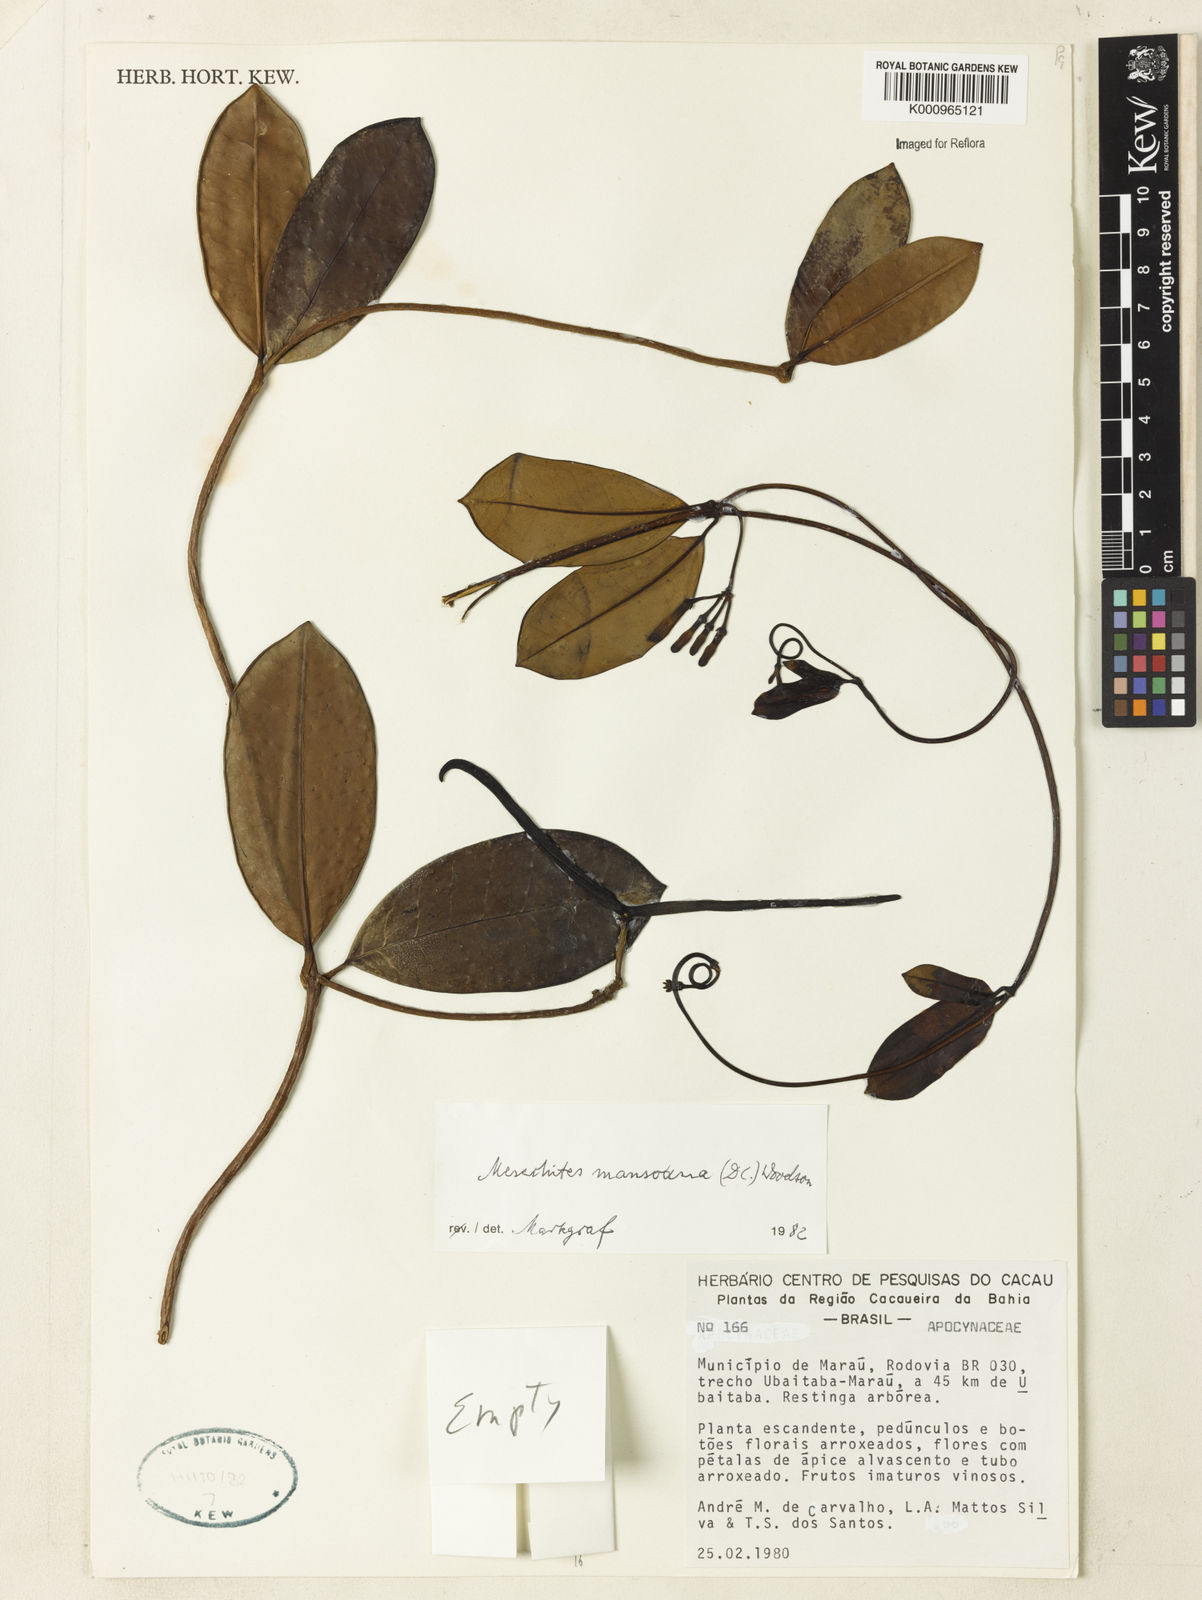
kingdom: Plantae
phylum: Tracheophyta
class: Magnoliopsida
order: Gentianales
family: Apocynaceae
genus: Mesechites
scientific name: Mesechites
